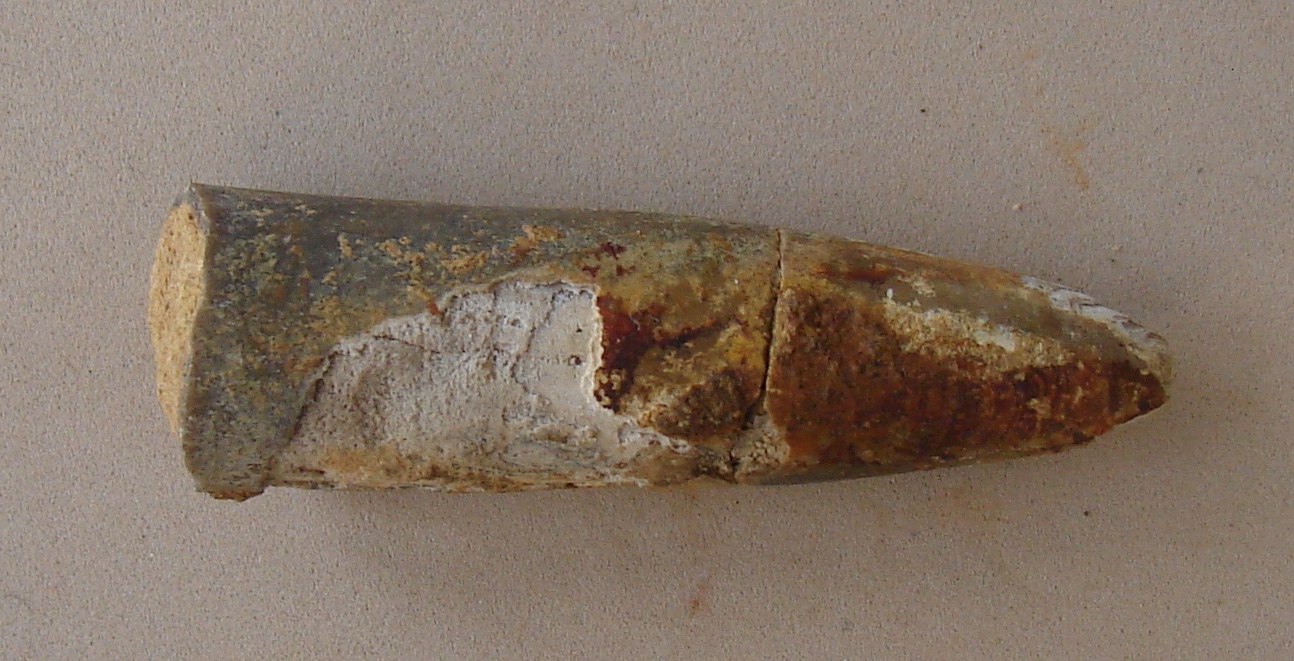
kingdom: Animalia
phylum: Mollusca
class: Cephalopoda
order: Belemnitida
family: Passaloteuthidae
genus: Brevibelus
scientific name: Brevibelus breviformis
